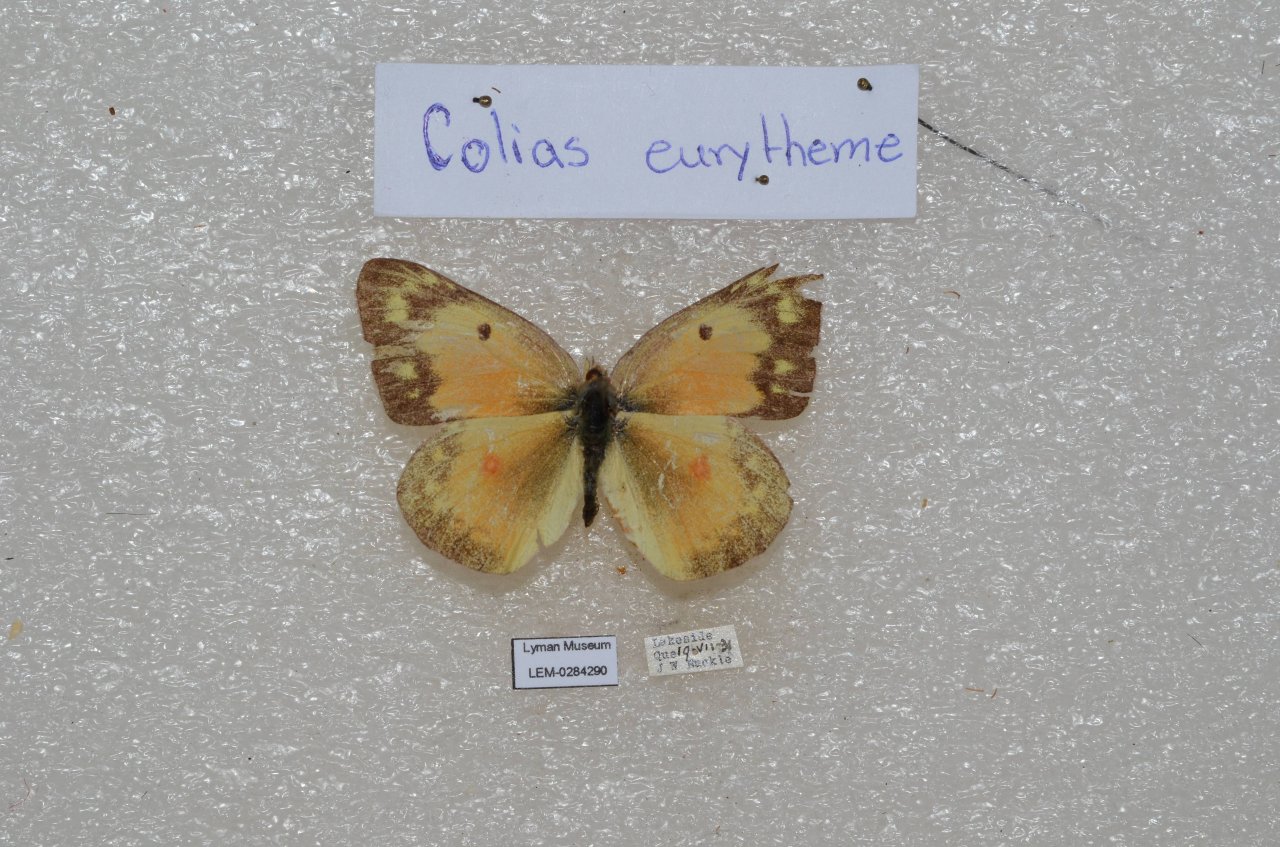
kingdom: Animalia
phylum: Arthropoda
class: Insecta
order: Lepidoptera
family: Pieridae
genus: Colias
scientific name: Colias eurytheme
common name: Orange Sulphur
